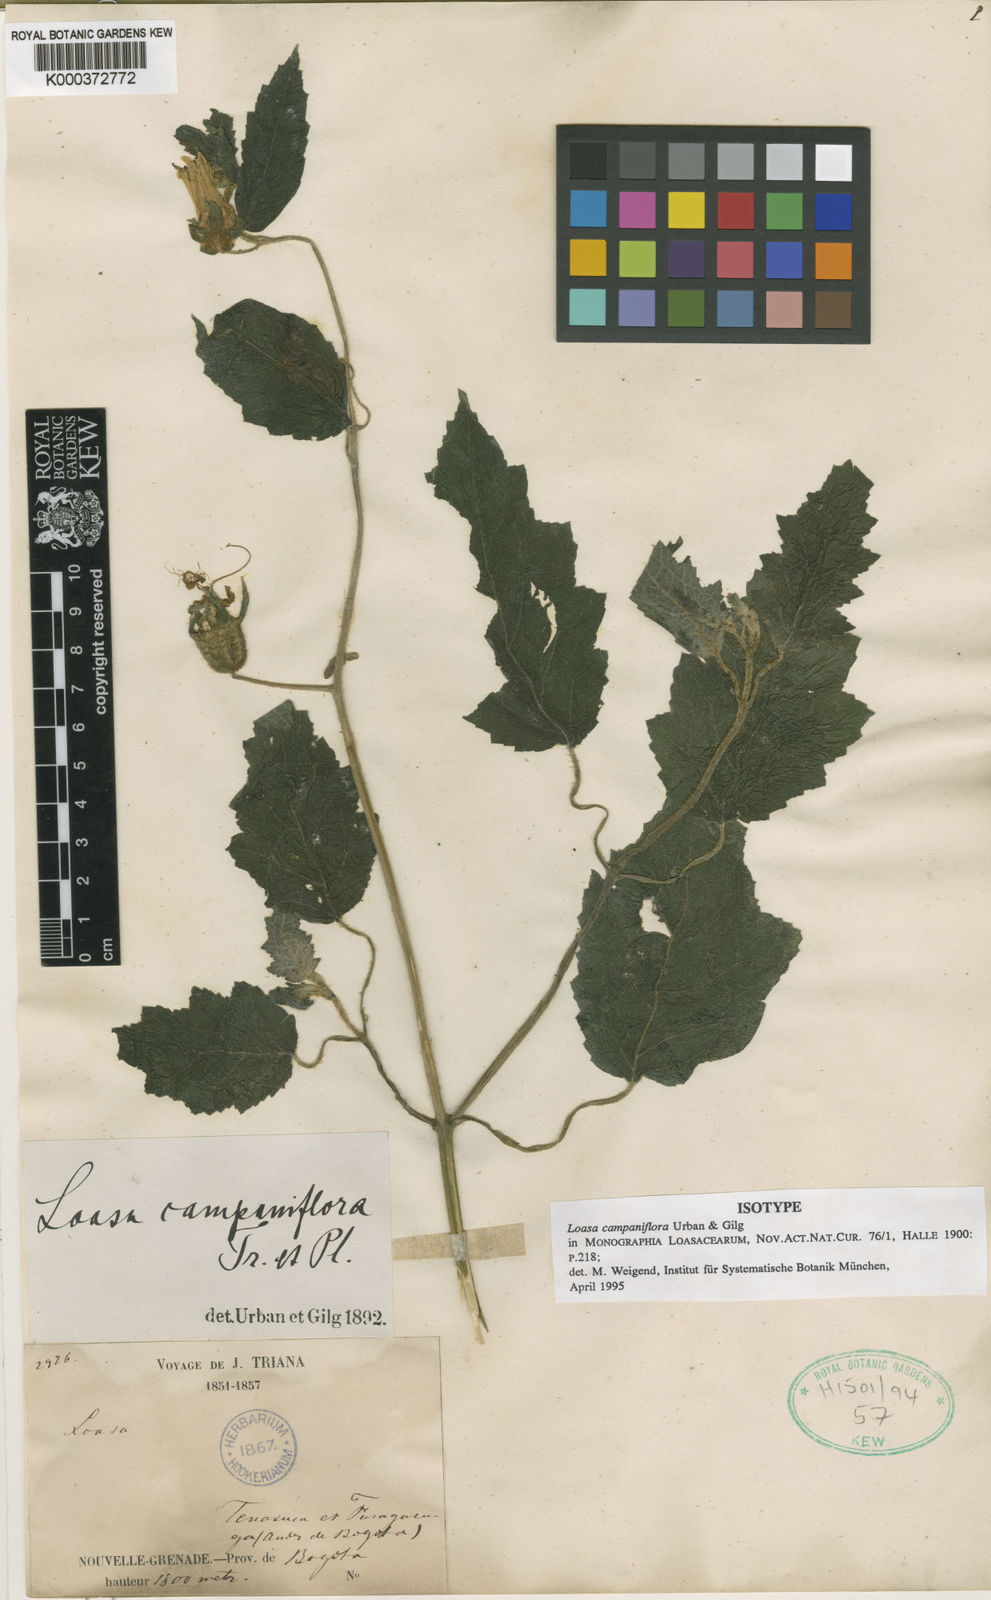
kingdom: Plantae
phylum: Tracheophyta
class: Magnoliopsida
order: Cornales
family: Loasaceae
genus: Nasa
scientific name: Nasa campaniflora
